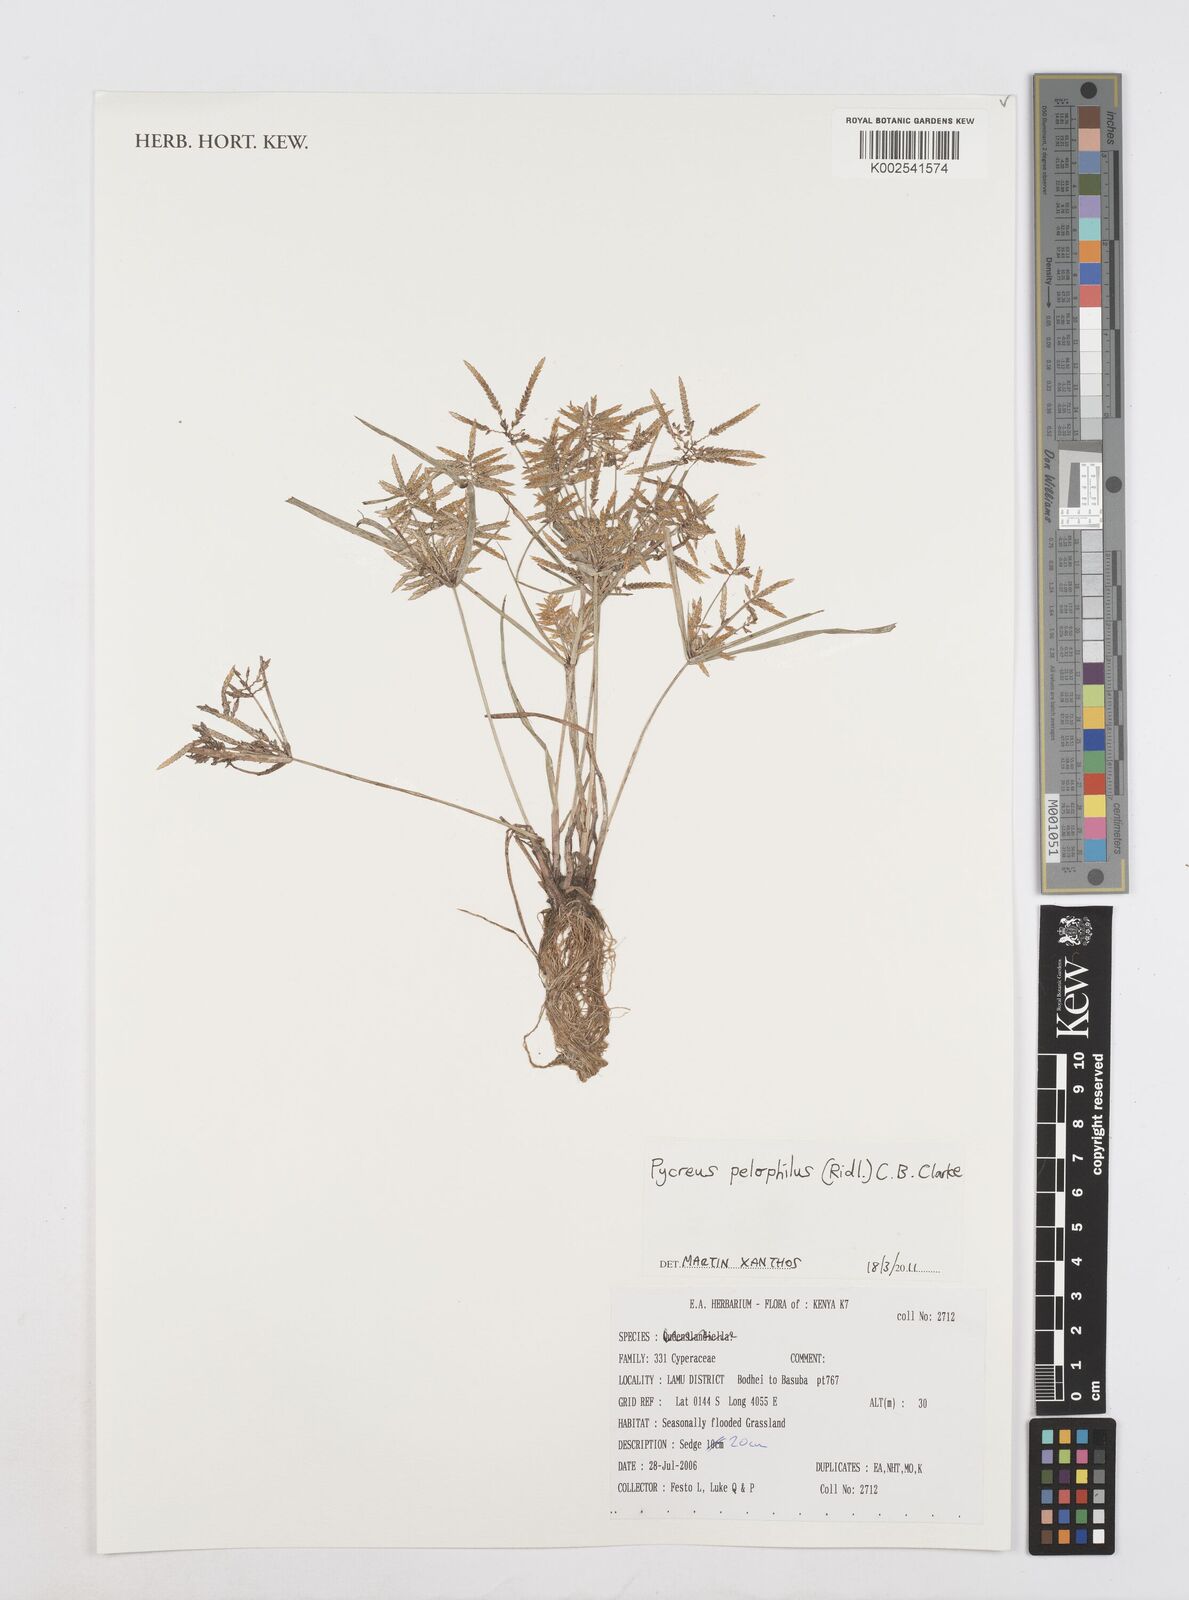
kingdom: Plantae
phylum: Tracheophyta
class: Liliopsida
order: Poales
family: Cyperaceae
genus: Cyperus
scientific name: Cyperus pelophilus
